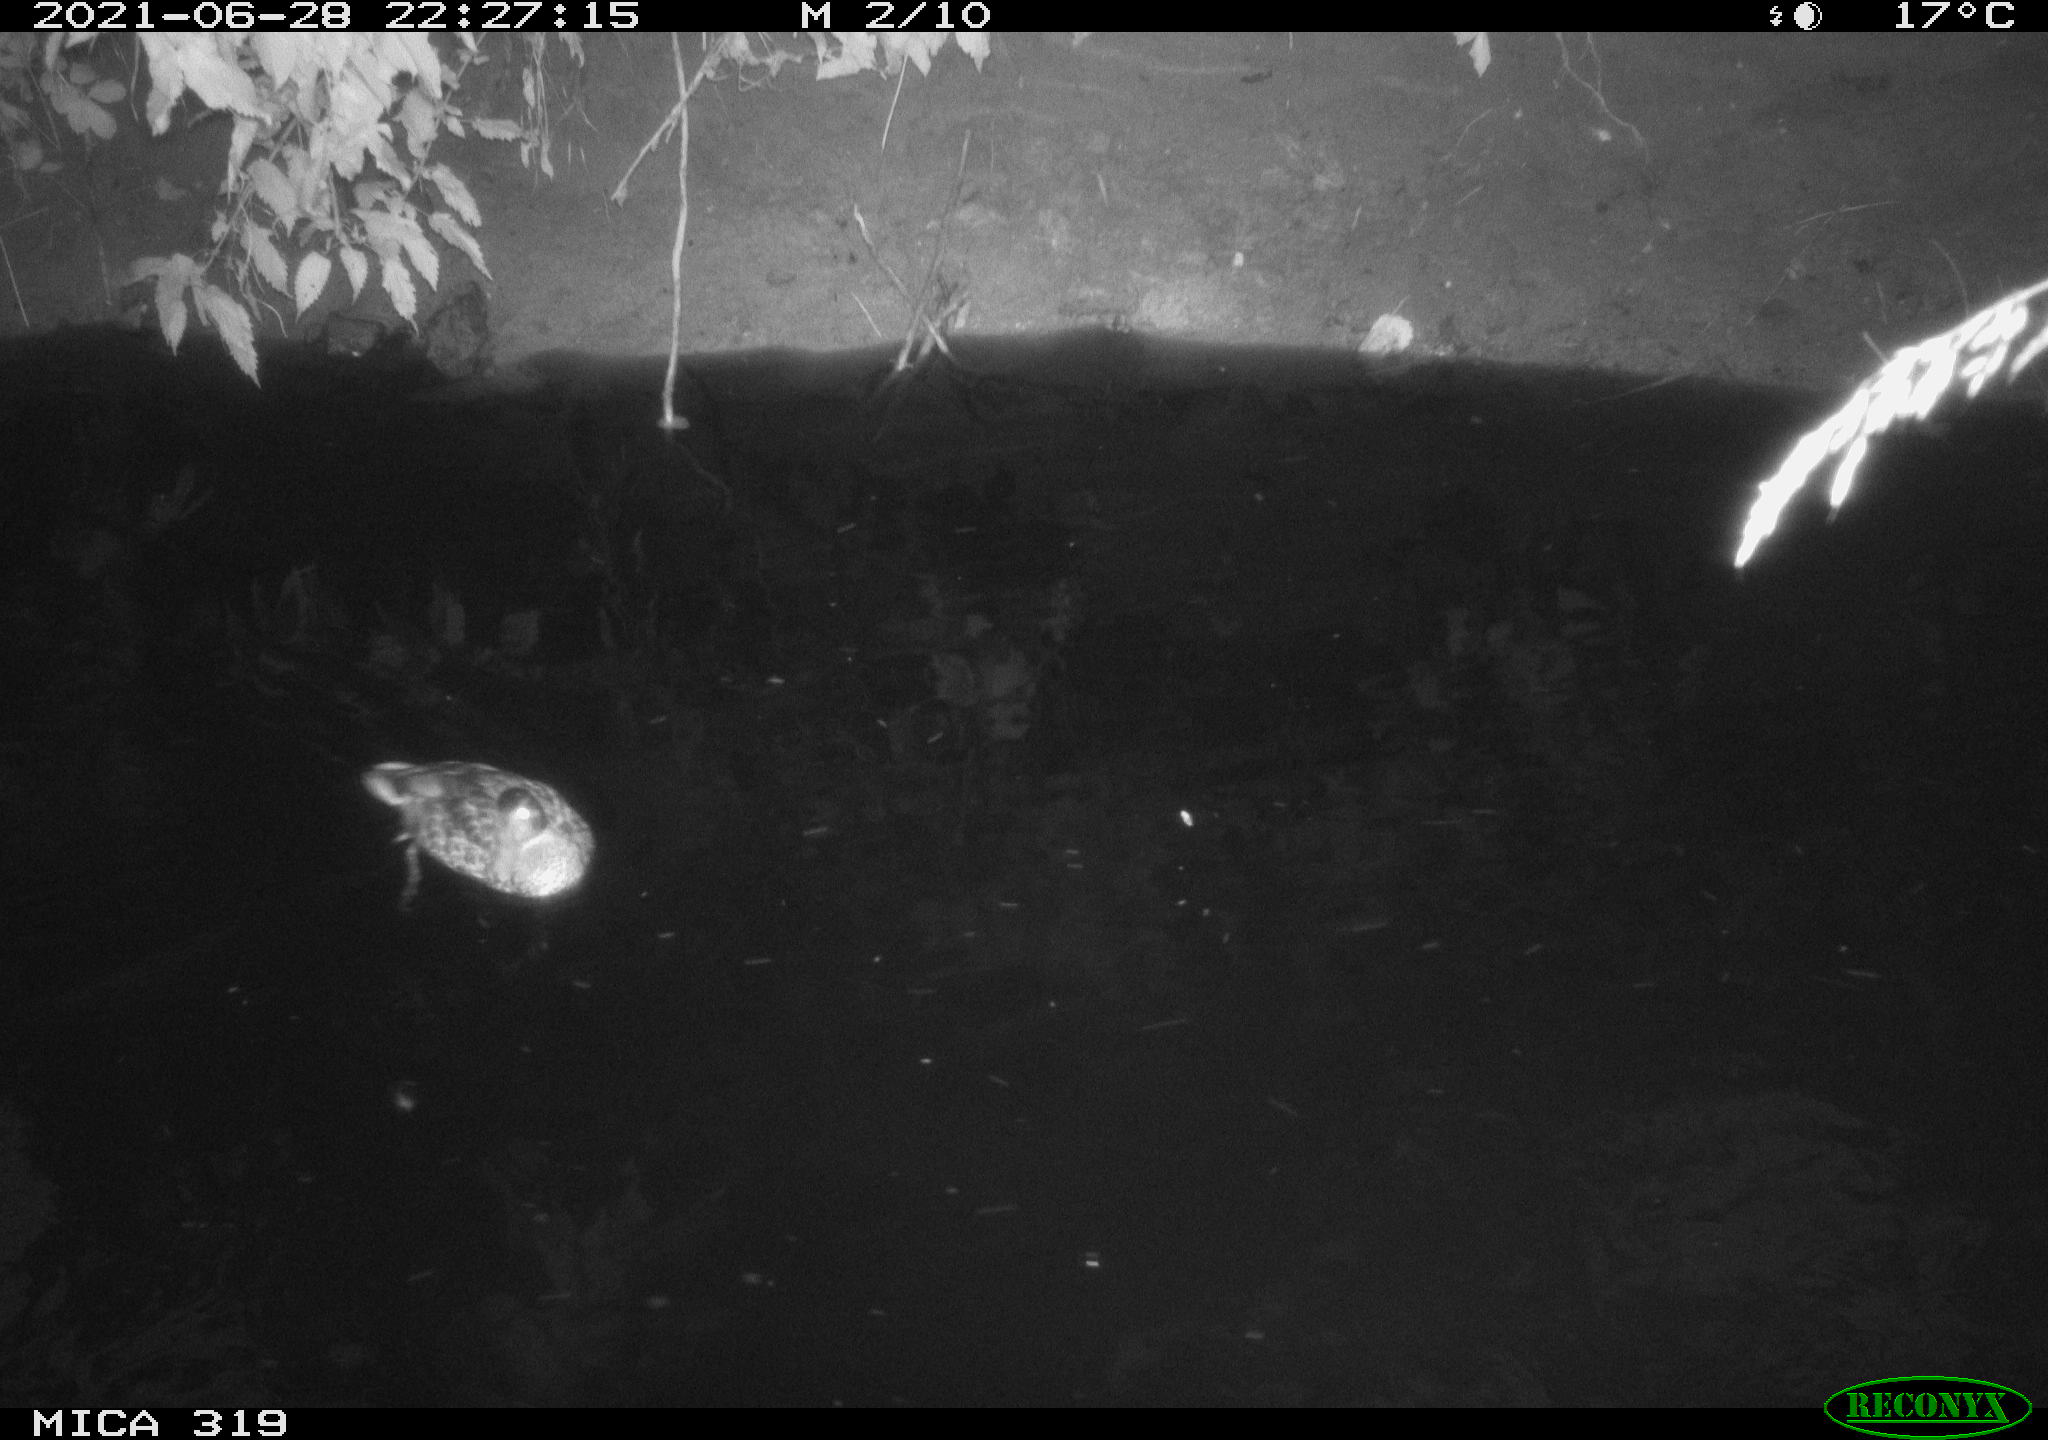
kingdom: Animalia
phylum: Chordata
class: Aves
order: Anseriformes
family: Anatidae
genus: Anas
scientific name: Anas platyrhynchos
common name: Mallard
